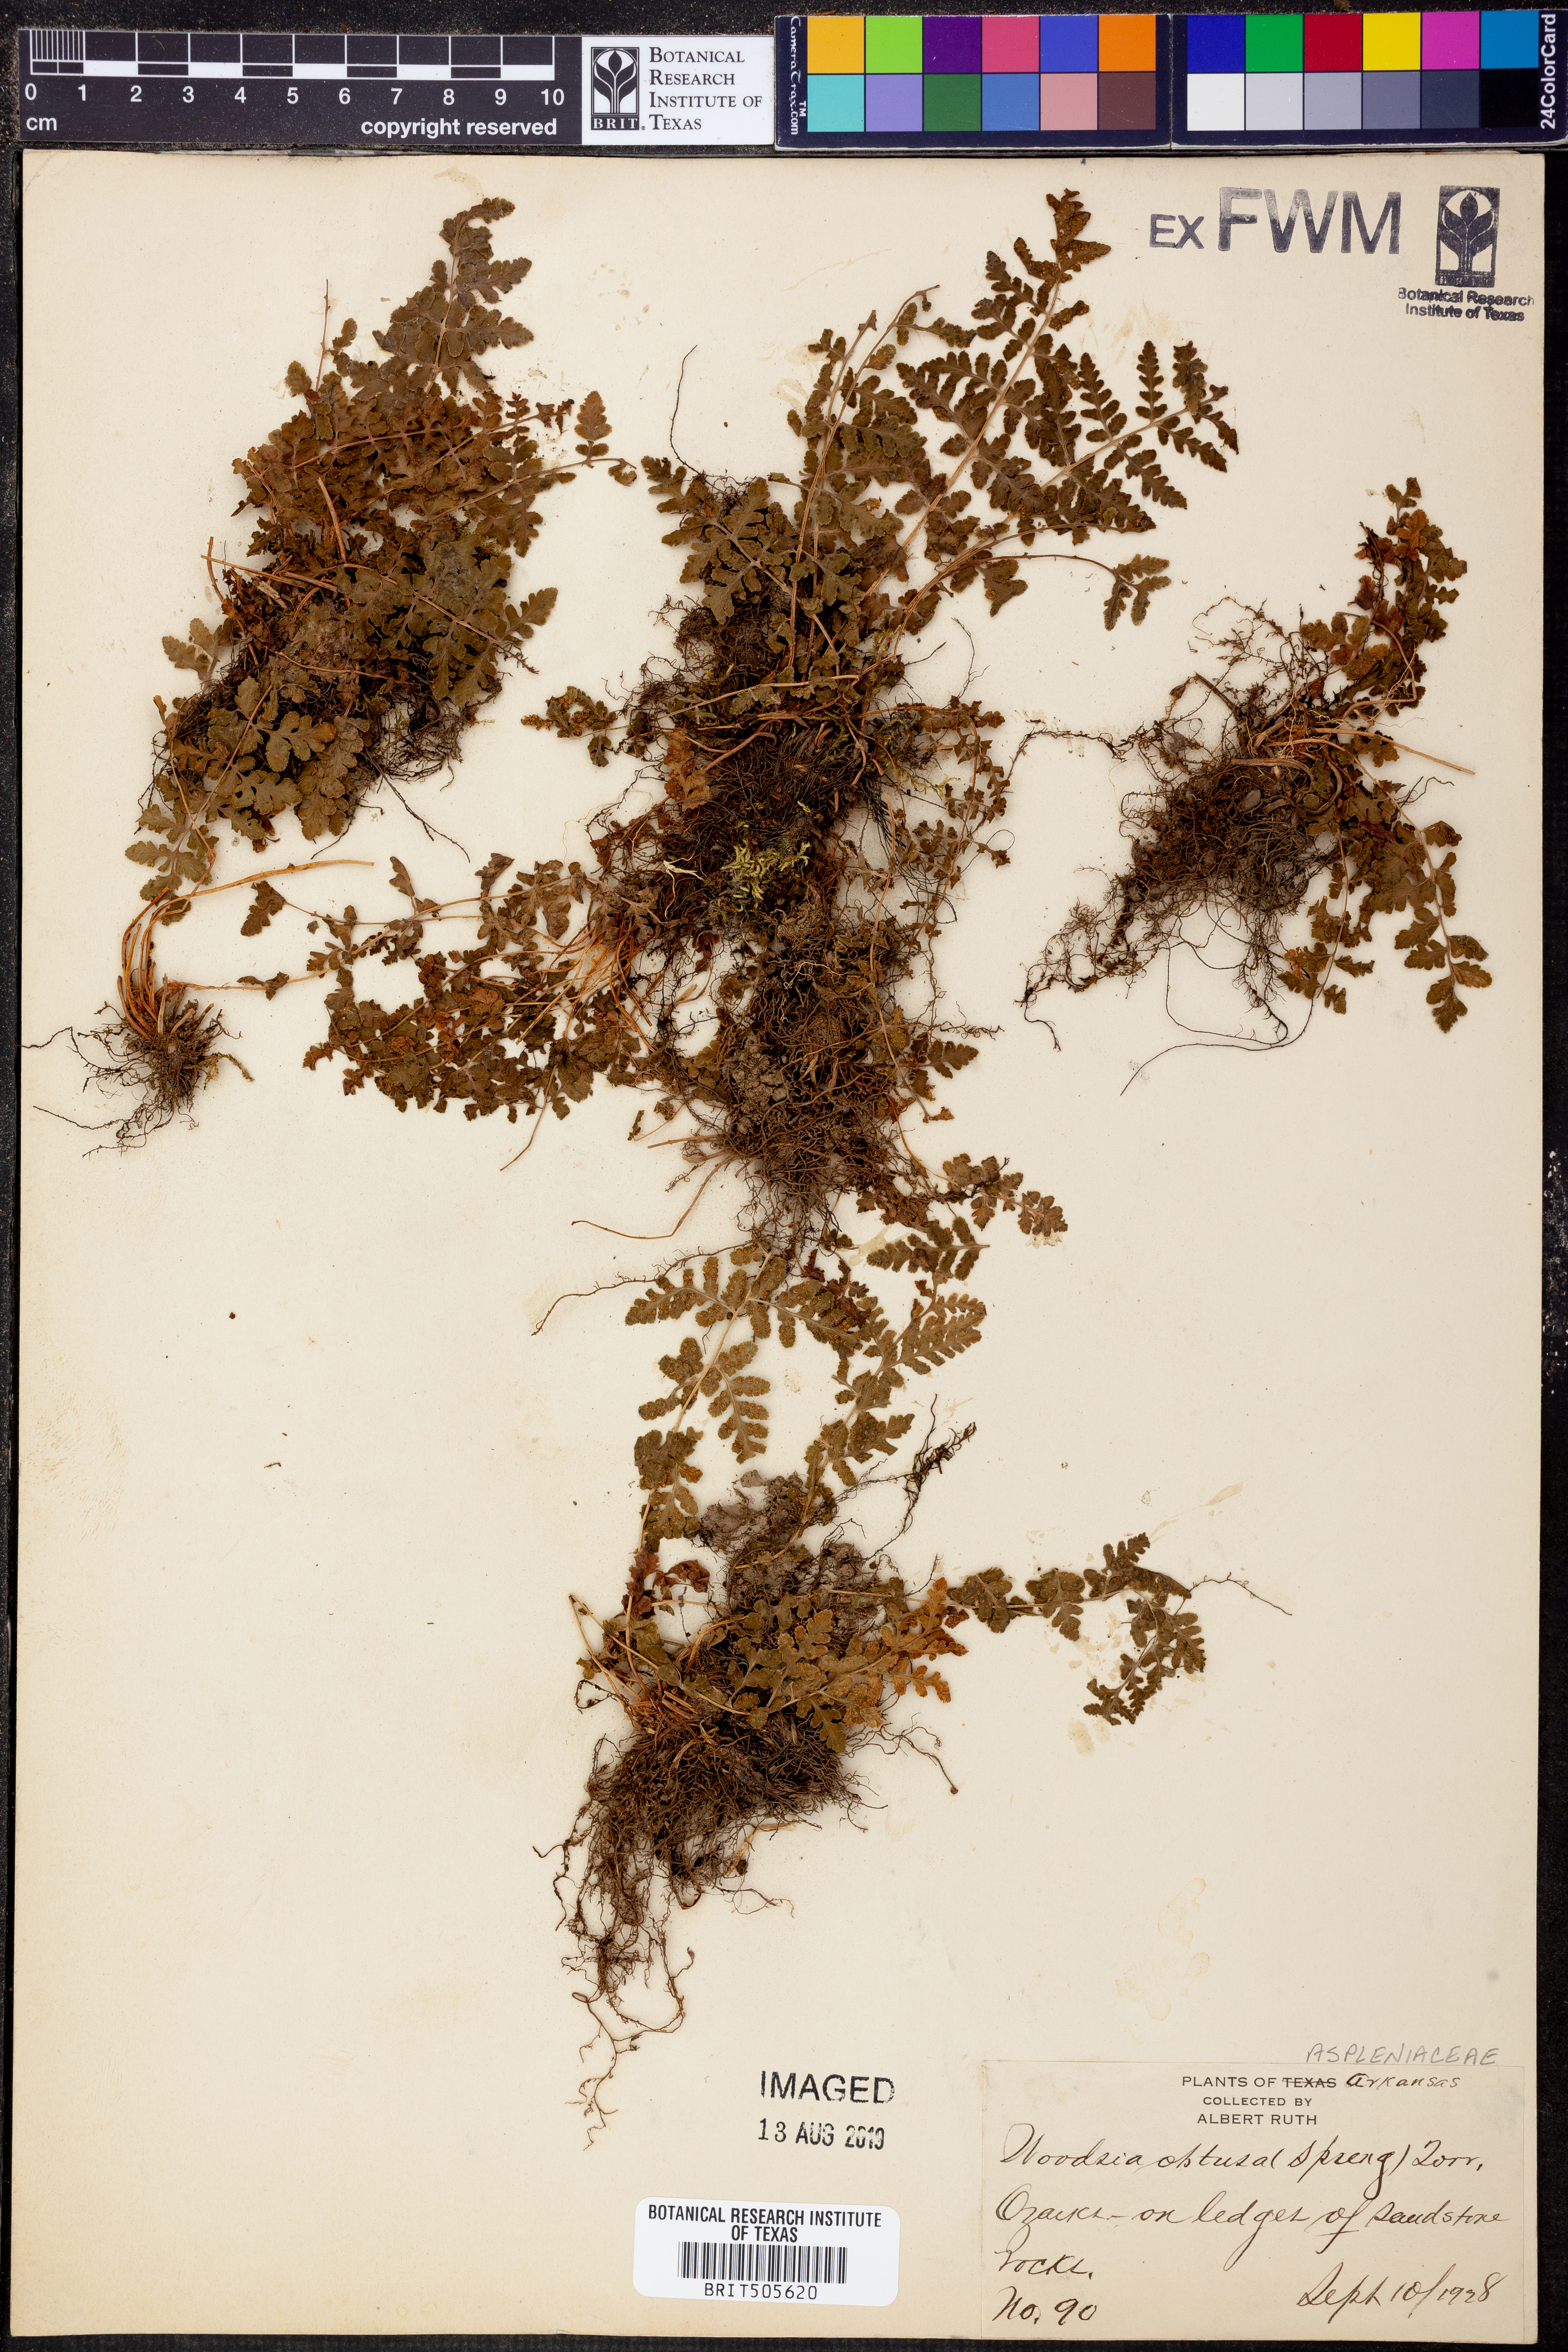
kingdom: Plantae
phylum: Tracheophyta
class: Polypodiopsida
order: Polypodiales
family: Woodsiaceae
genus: Physematium
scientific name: Physematium obtusum
